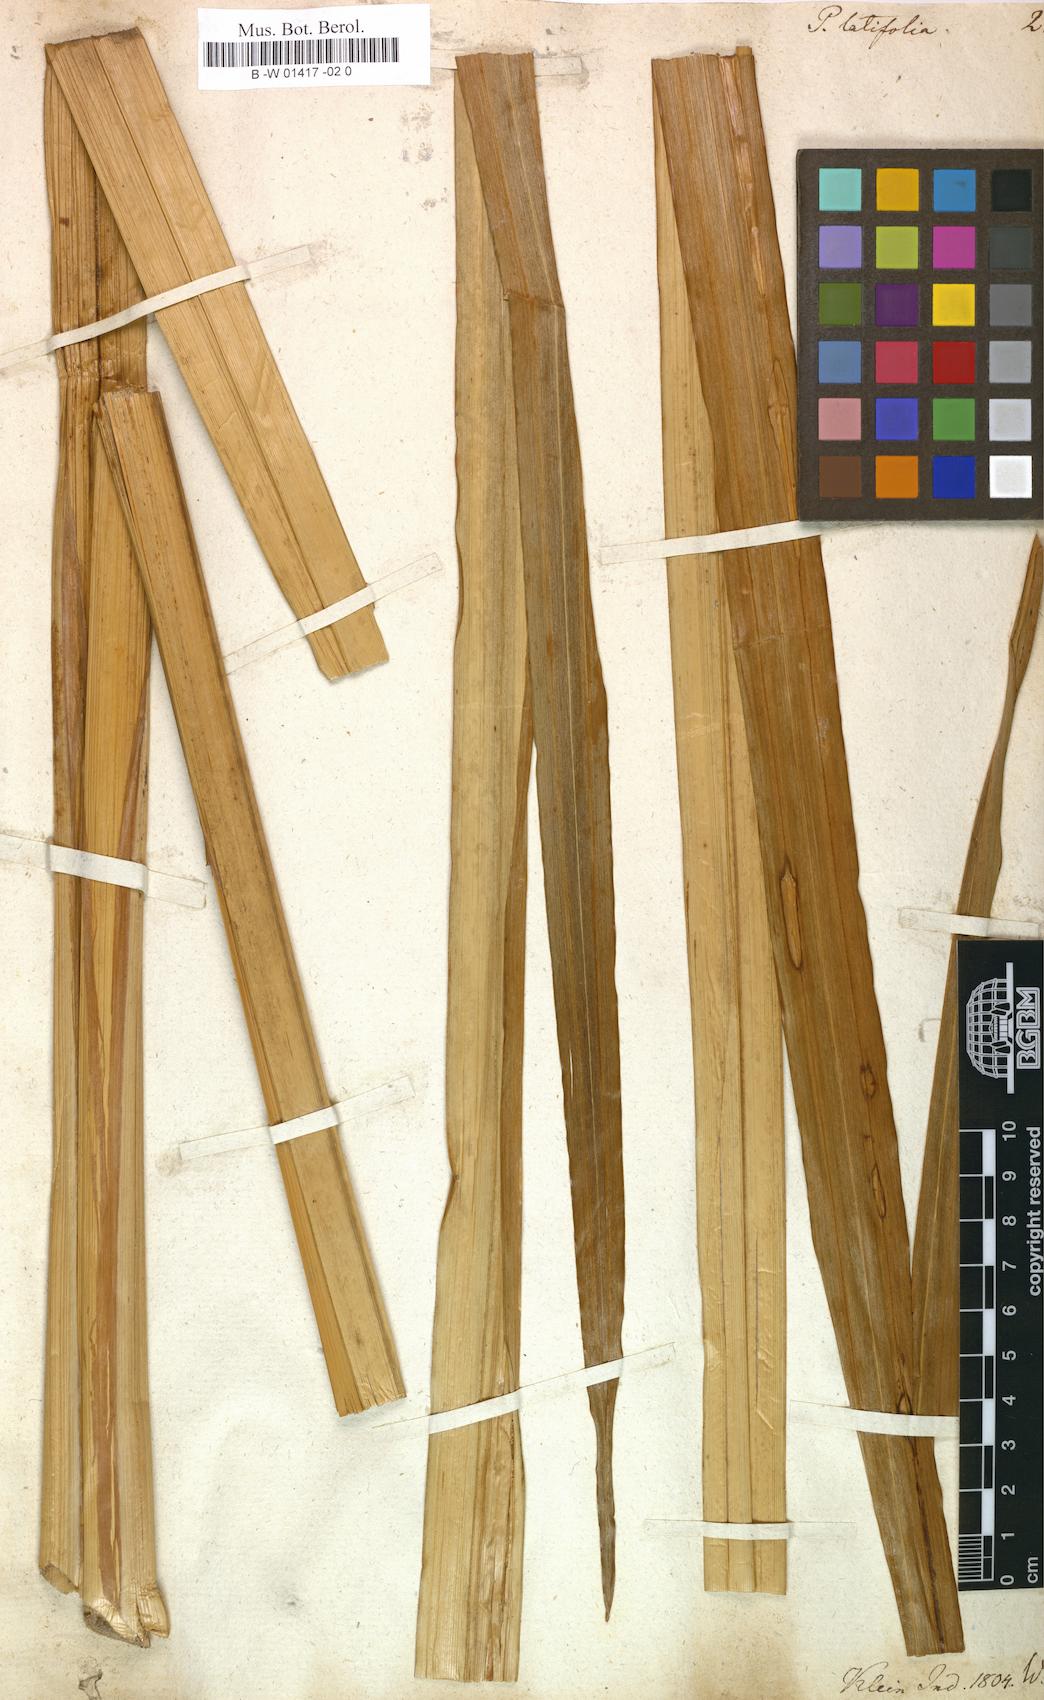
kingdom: Plantae
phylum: Tracheophyta
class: Liliopsida
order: Poales
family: Cyperaceae
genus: Cyperus
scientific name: Cyperus platyphyllus
